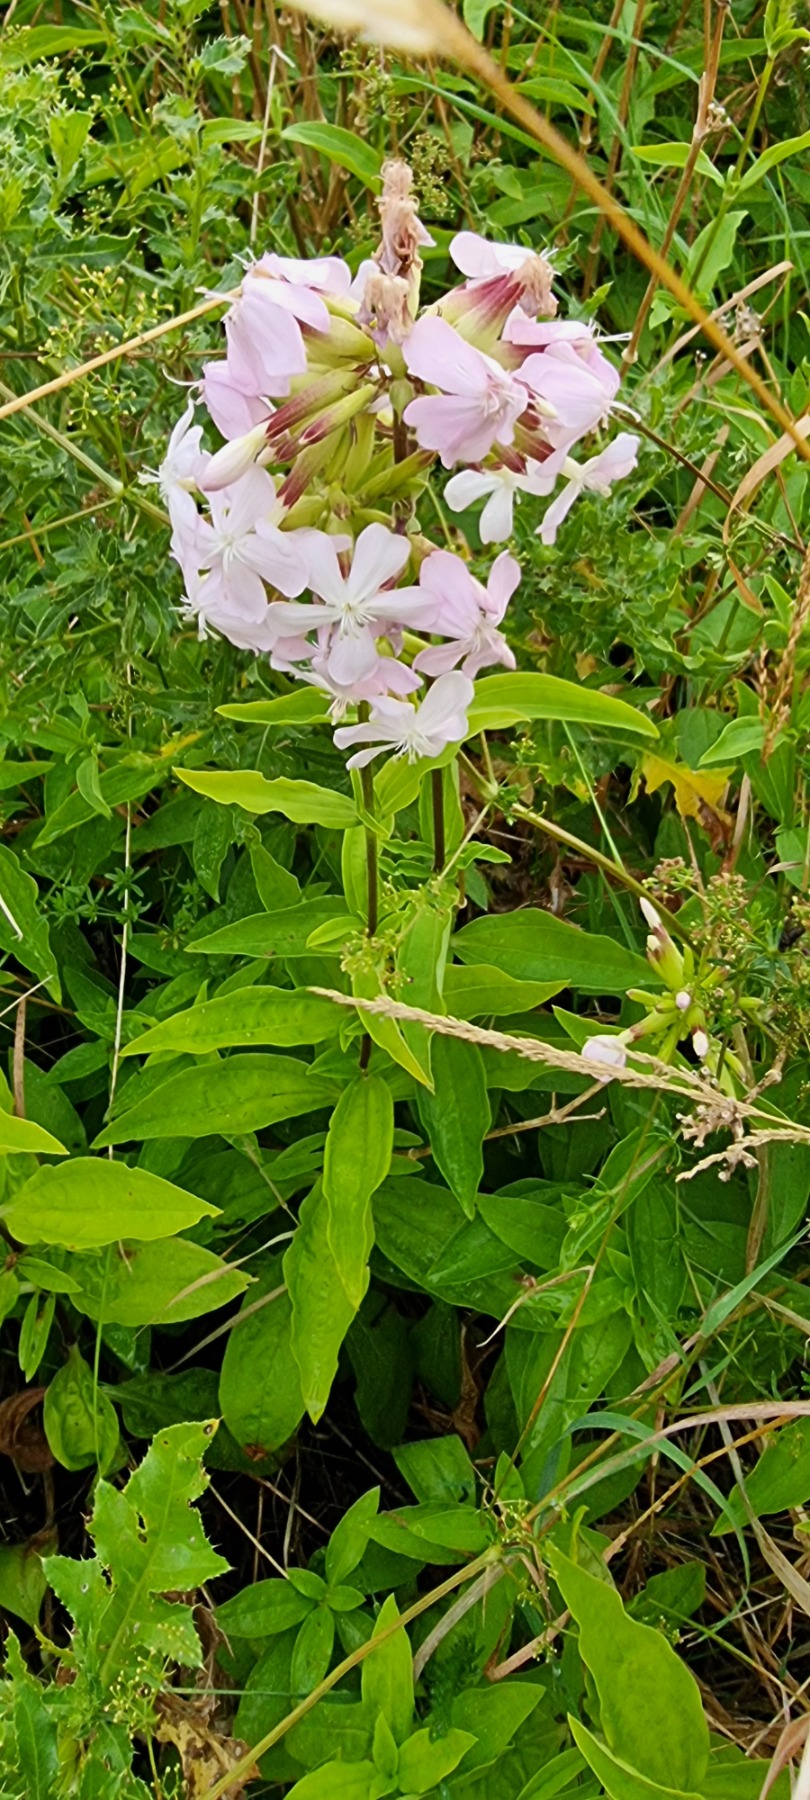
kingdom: Plantae
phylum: Tracheophyta
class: Magnoliopsida
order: Caryophyllales
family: Caryophyllaceae
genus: Saponaria
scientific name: Saponaria officinalis
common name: Sæbeurt
